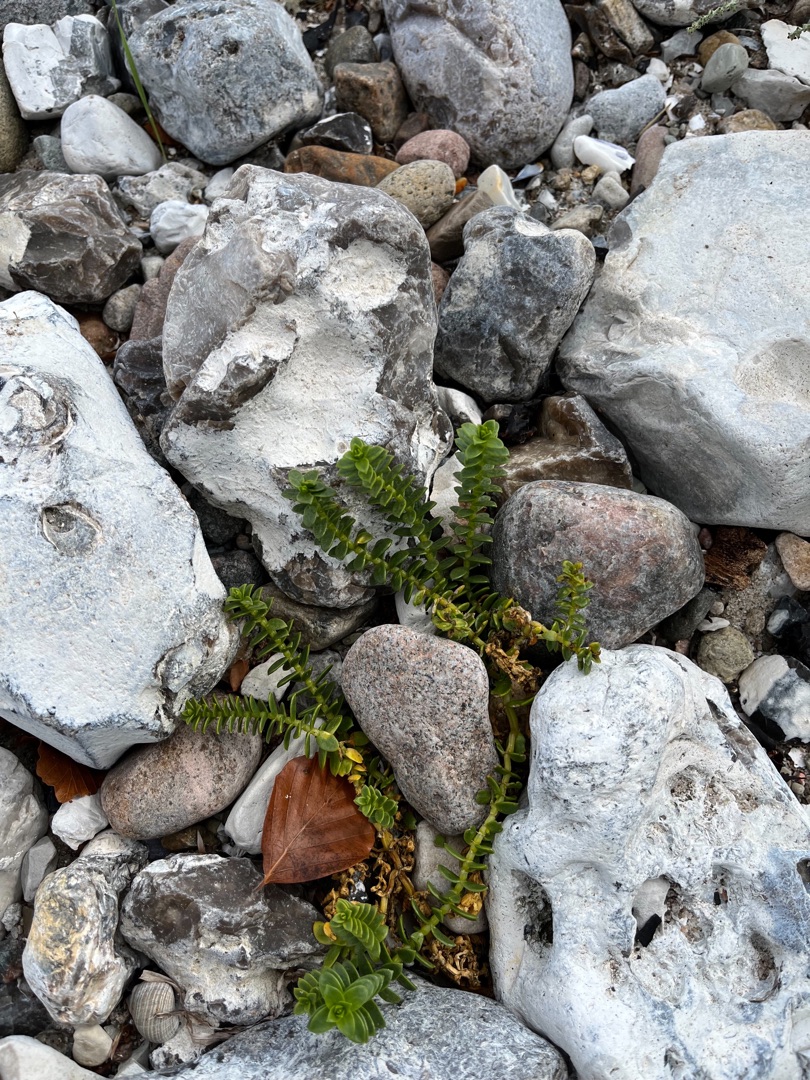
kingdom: Plantae
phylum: Tracheophyta
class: Magnoliopsida
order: Caryophyllales
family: Caryophyllaceae
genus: Honckenya
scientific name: Honckenya peploides
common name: Strandarve
